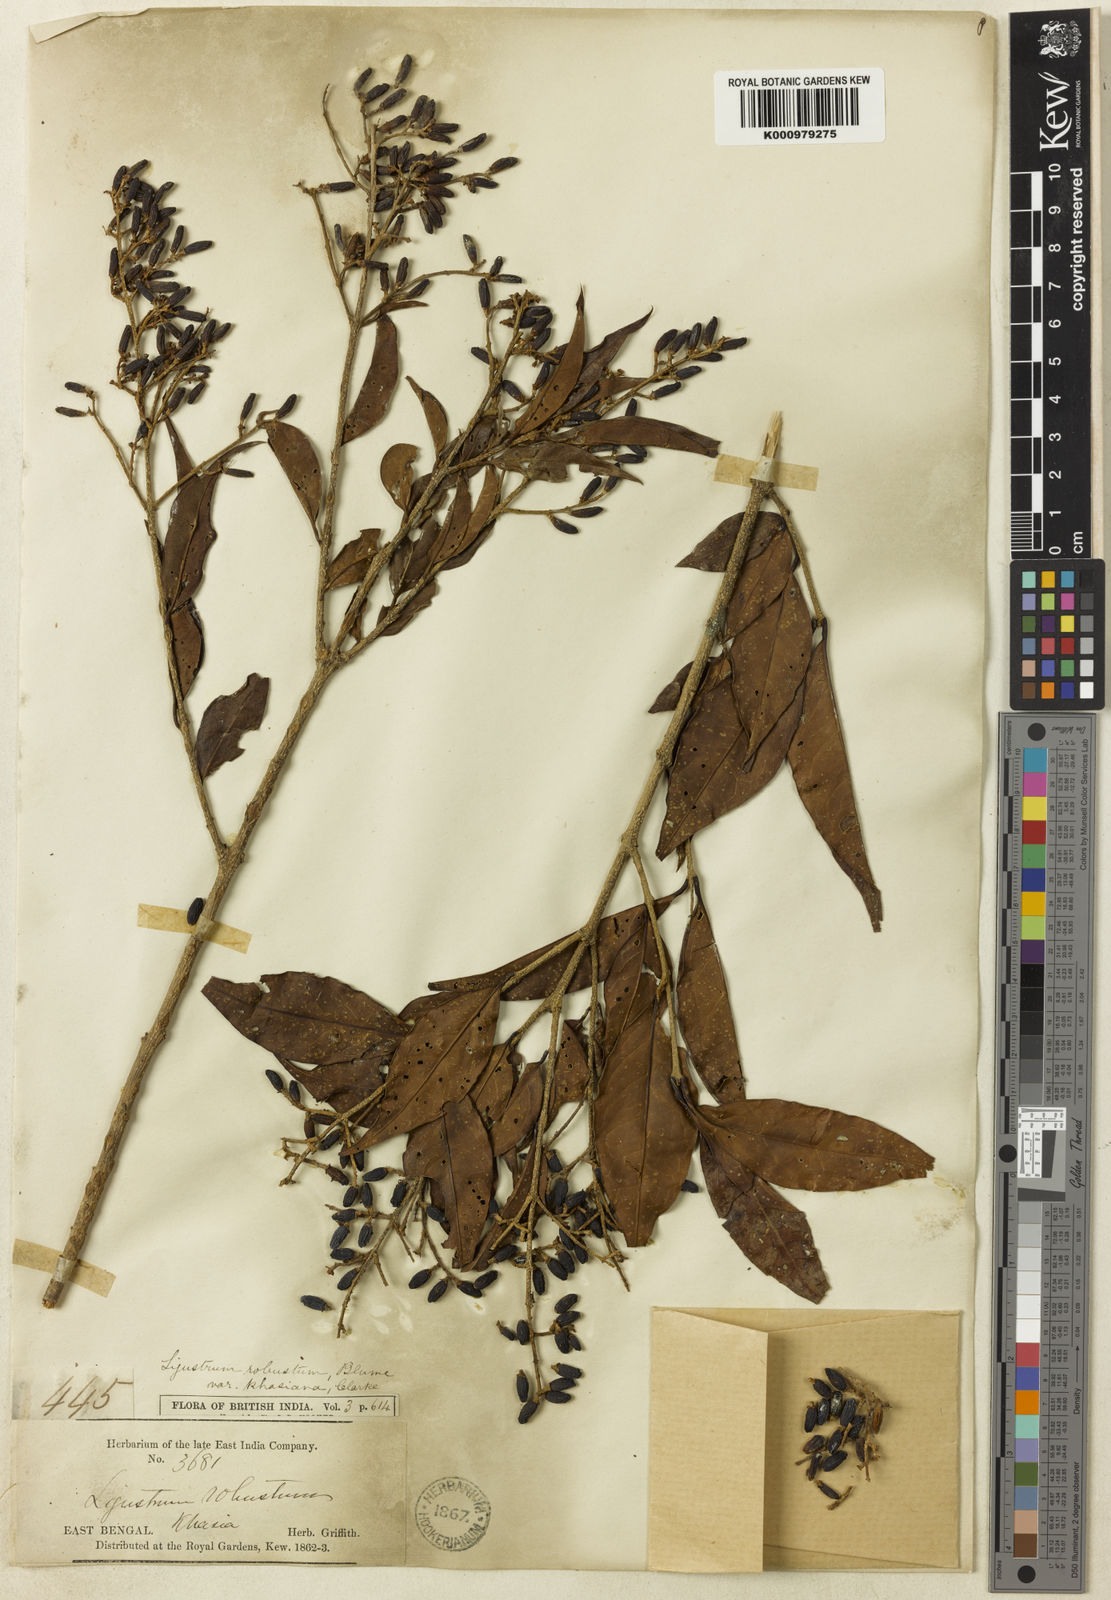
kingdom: Plantae
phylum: Tracheophyta
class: Magnoliopsida
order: Lamiales
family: Oleaceae
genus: Ligustrum
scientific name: Ligustrum robustum
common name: Tree privet
